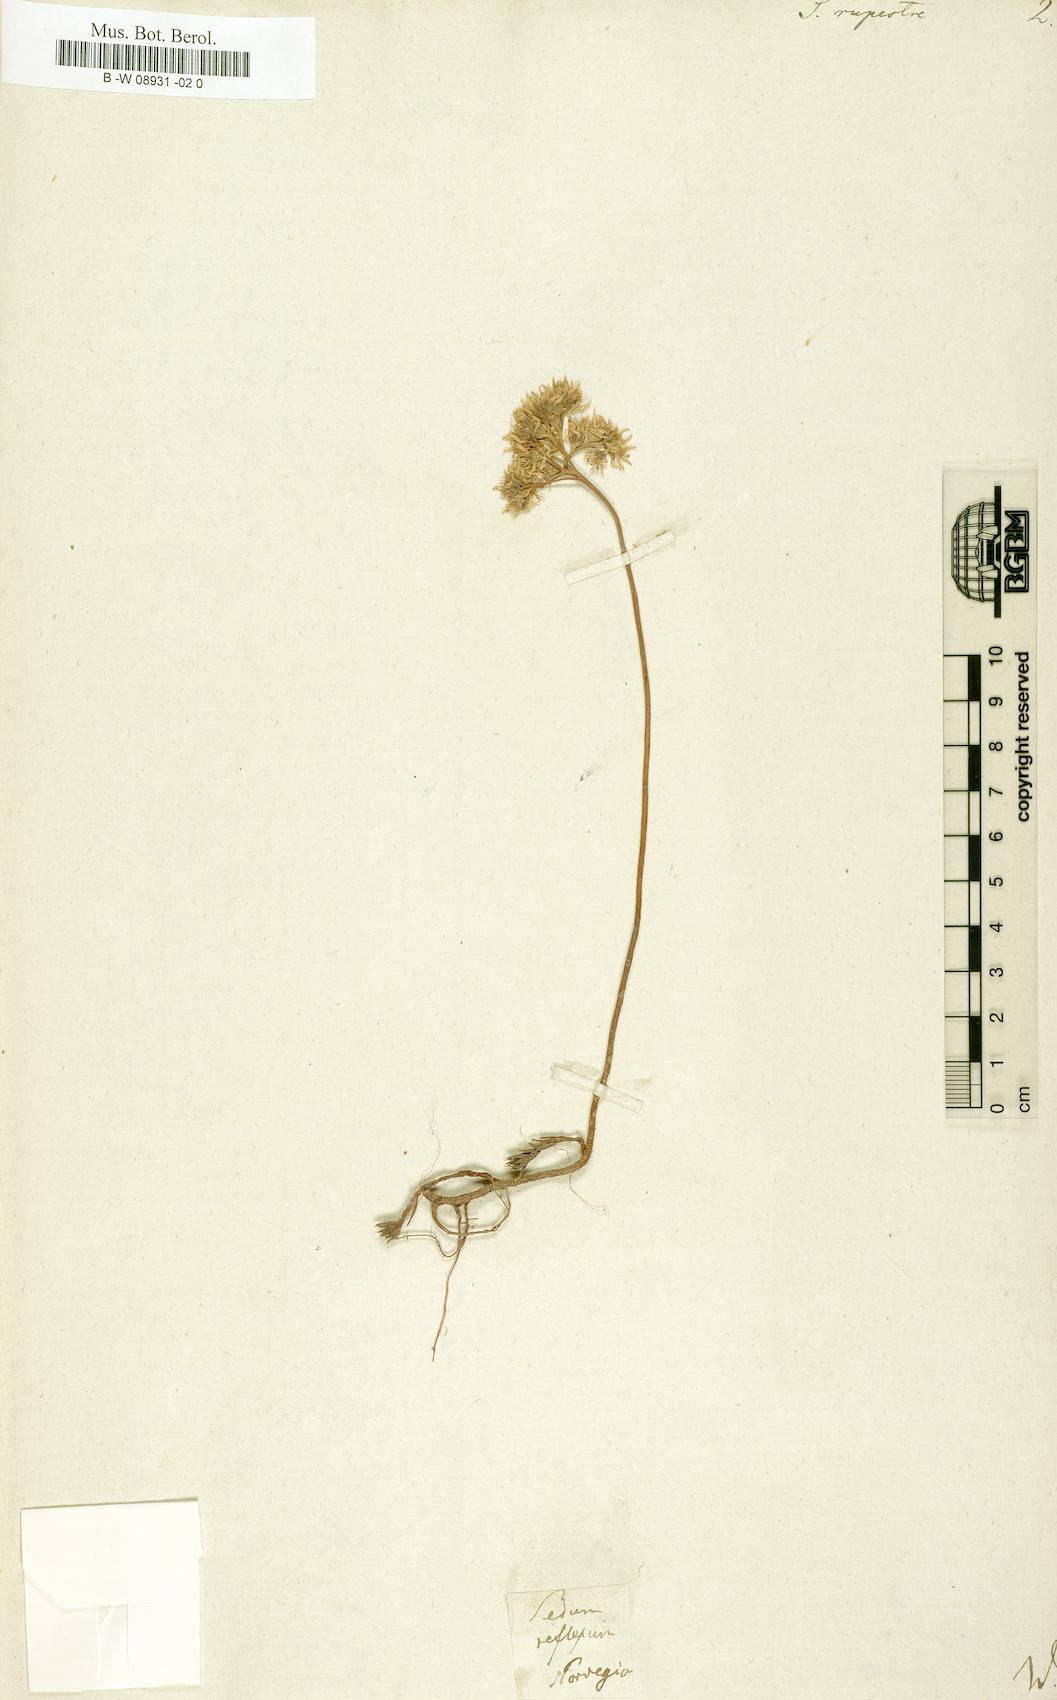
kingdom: Plantae
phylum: Tracheophyta
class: Magnoliopsida
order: Saxifragales
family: Crassulaceae
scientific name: Crassulaceae
